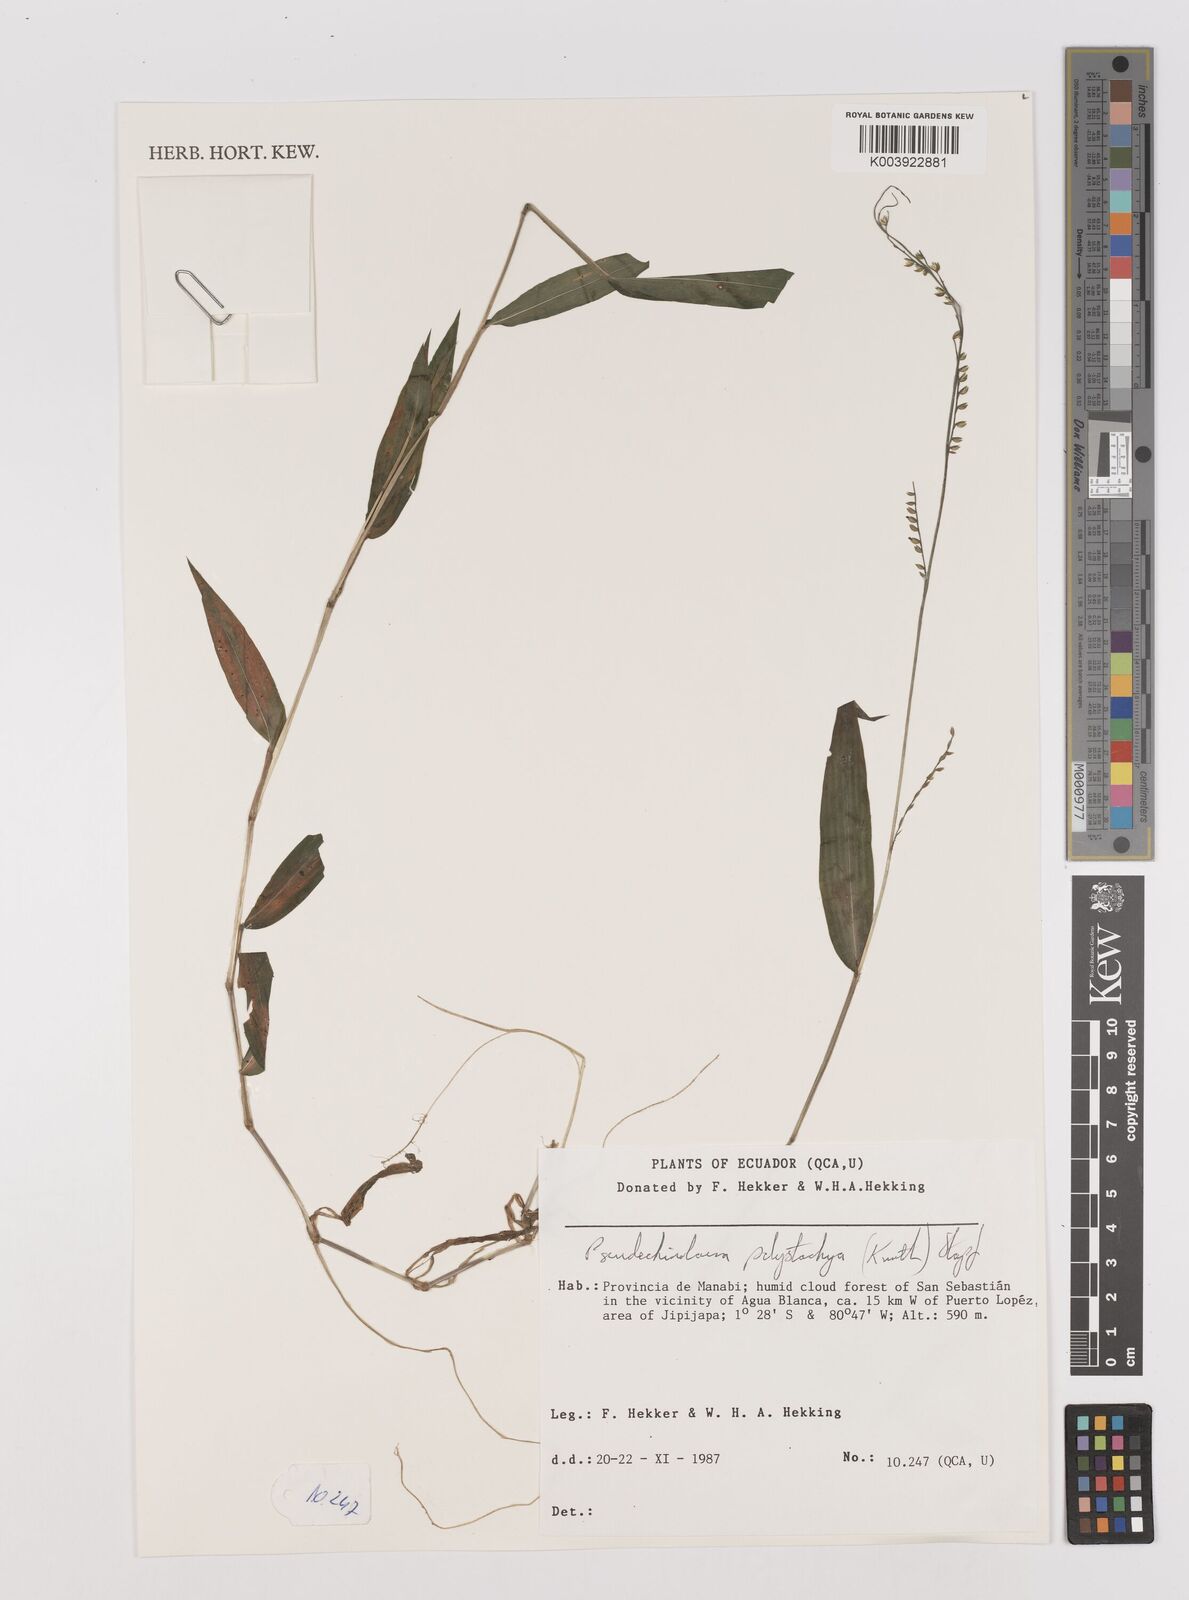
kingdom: Plantae
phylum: Tracheophyta
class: Liliopsida
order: Poales
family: Poaceae
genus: Pseudechinolaena
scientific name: Pseudechinolaena polystachya
